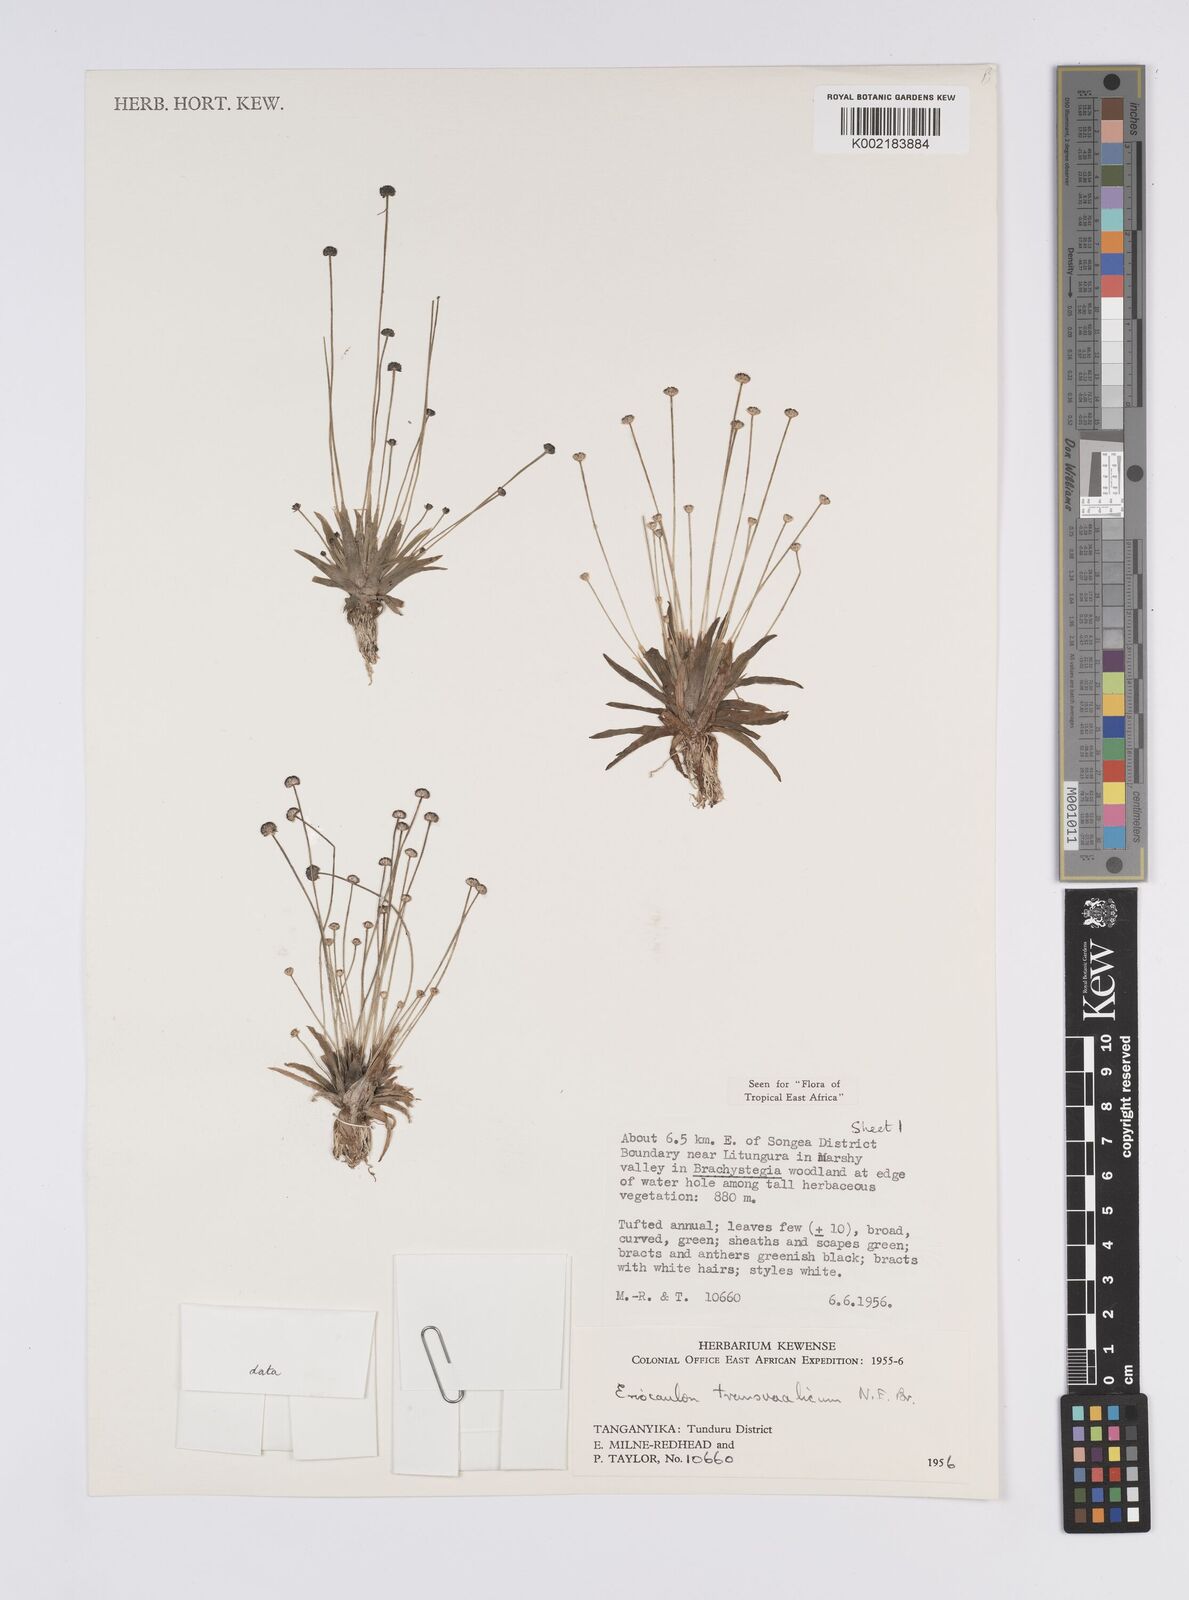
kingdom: Plantae
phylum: Tracheophyta
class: Liliopsida
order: Poales
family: Eriocaulaceae
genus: Eriocaulon
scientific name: Eriocaulon transvaalicum
